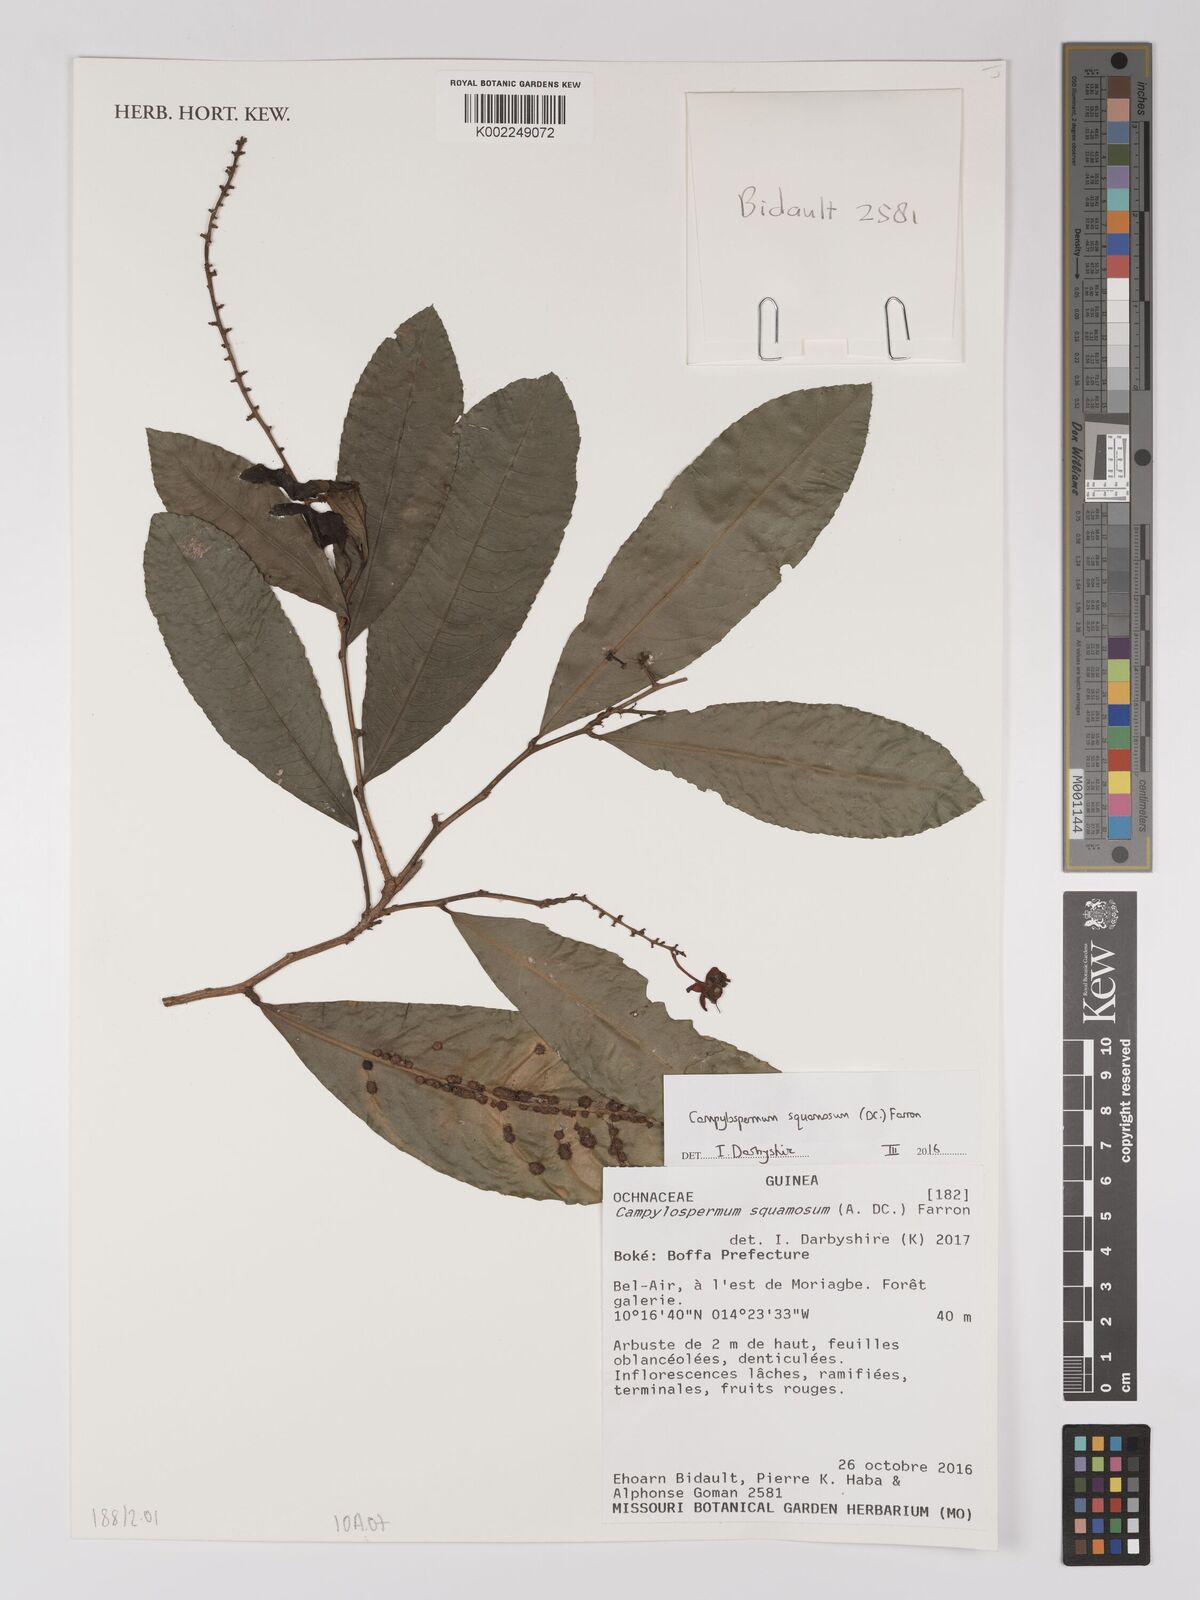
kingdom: Plantae
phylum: Tracheophyta
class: Magnoliopsida
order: Malpighiales
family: Ochnaceae
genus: Campylospermum
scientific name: Campylospermum squamosum
